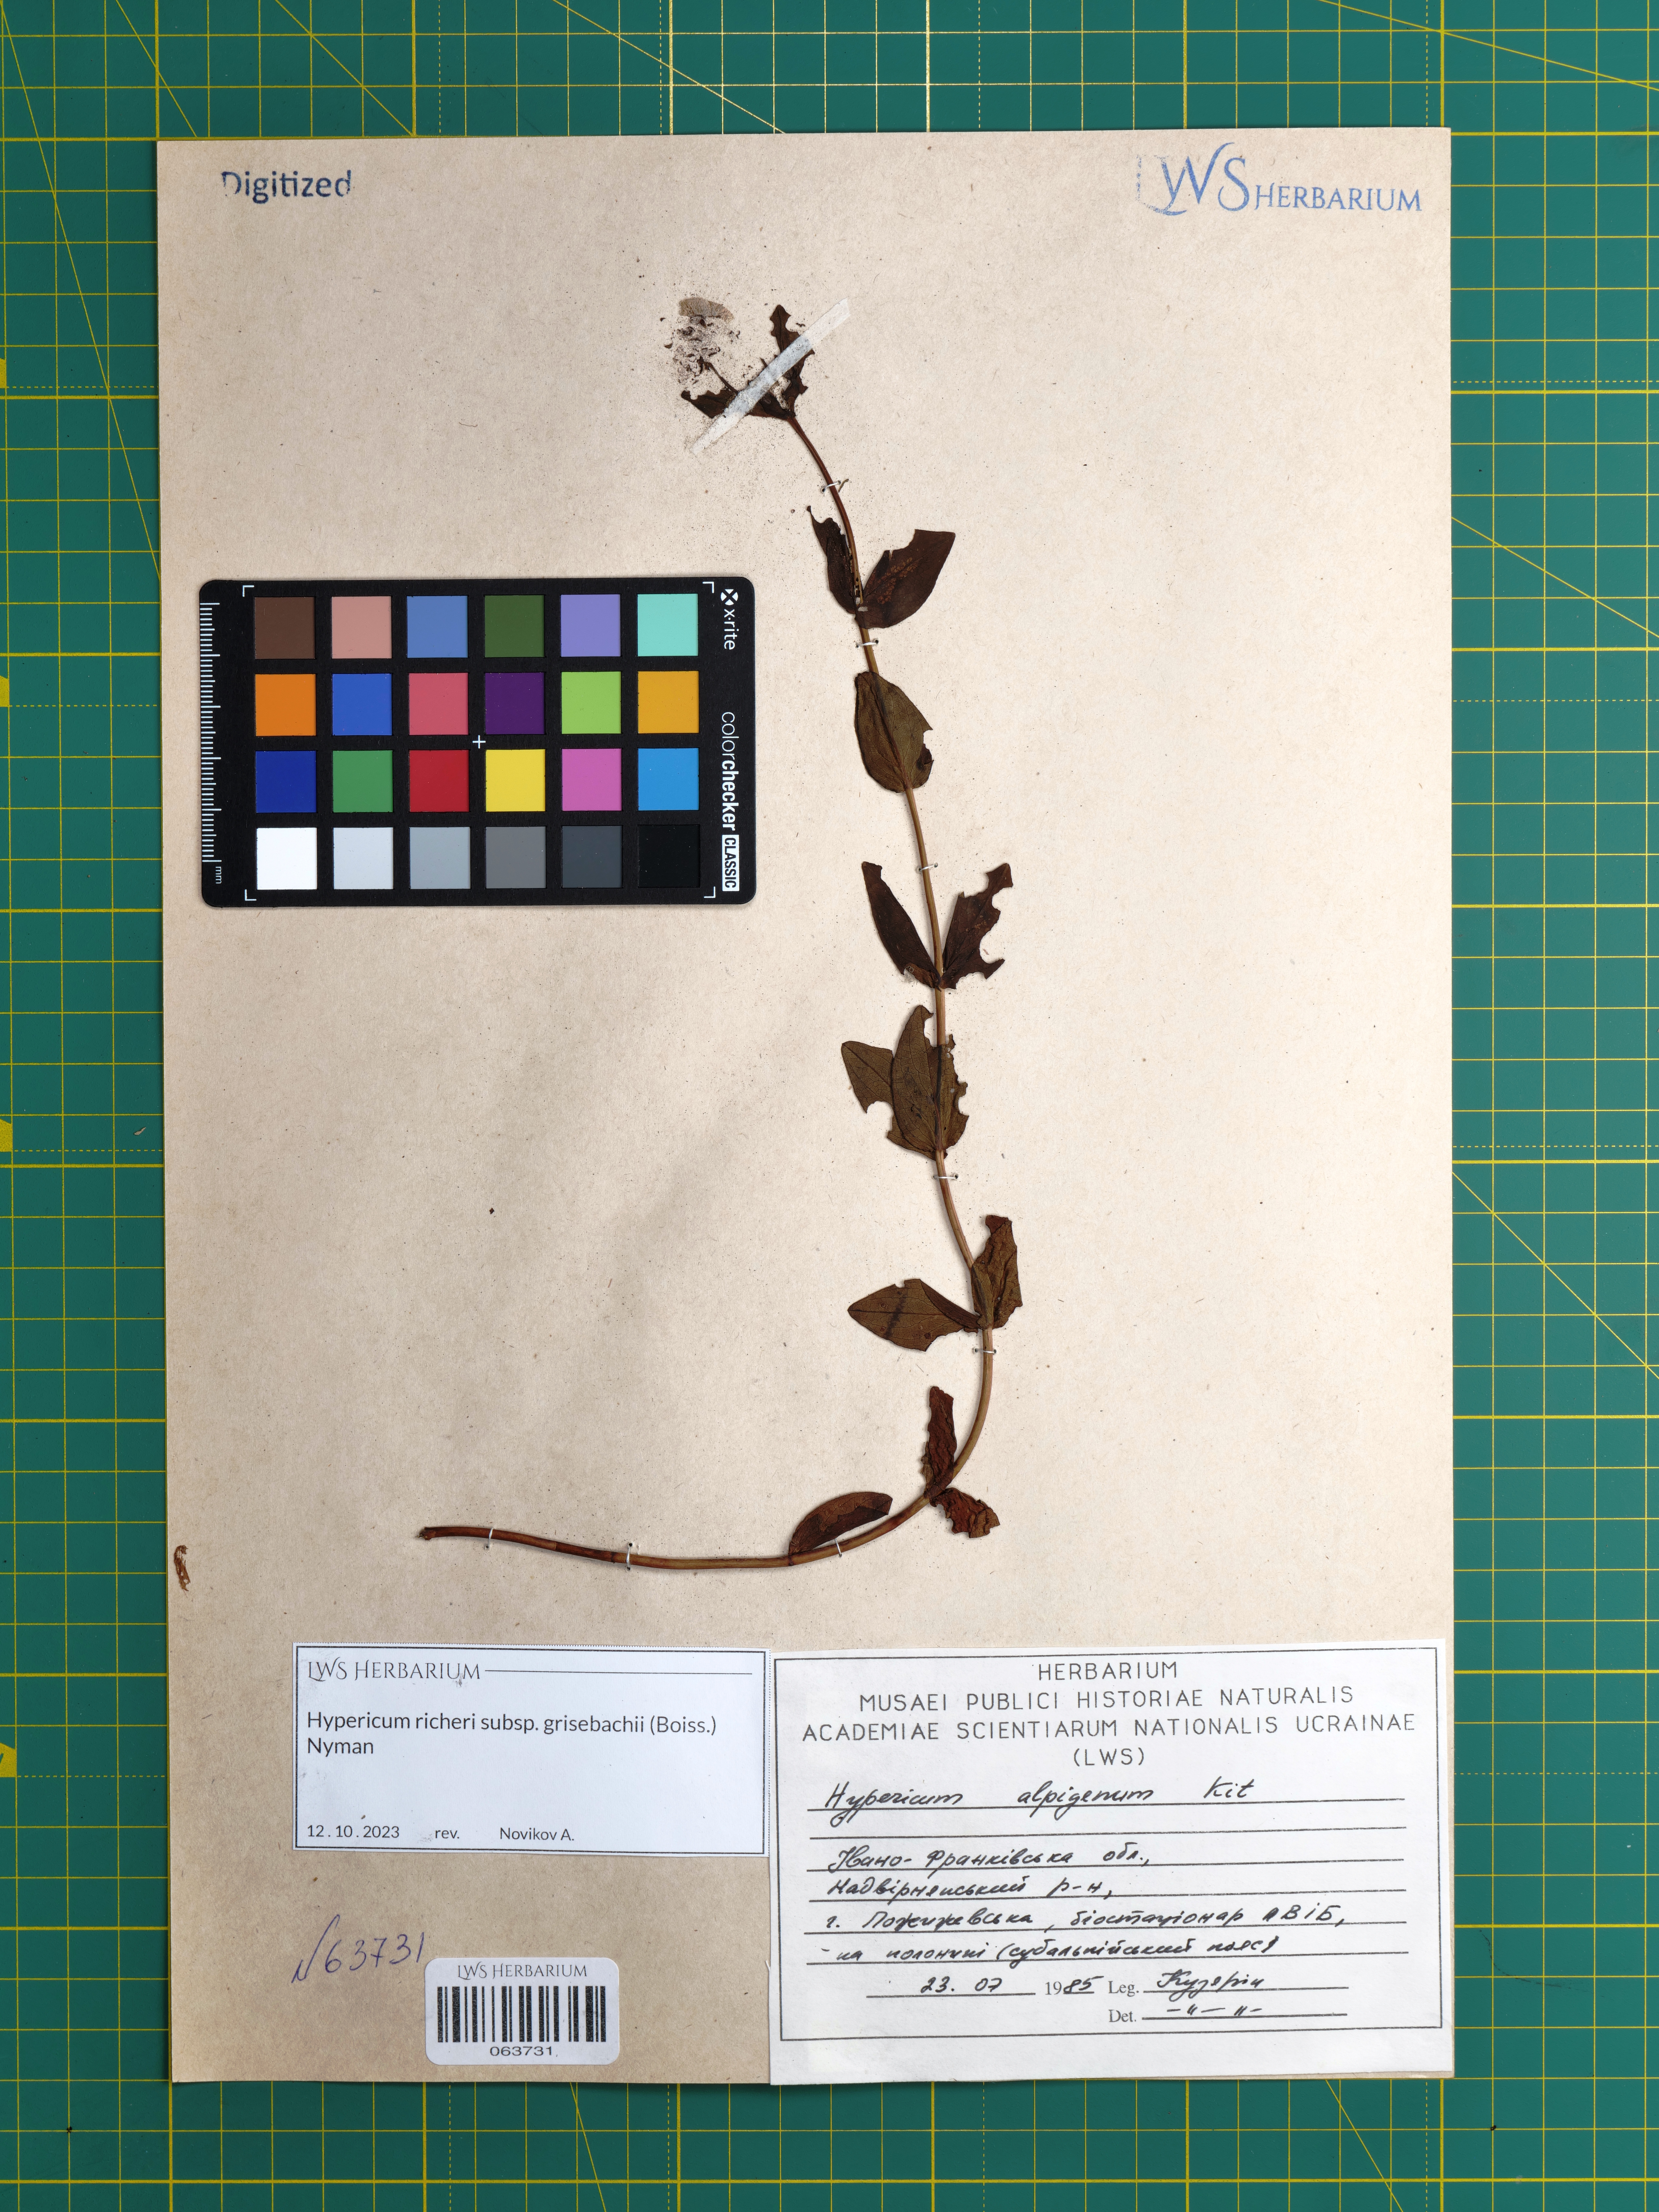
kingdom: Plantae
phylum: Tracheophyta
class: Magnoliopsida
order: Malpighiales
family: Hypericaceae
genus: Hypericum
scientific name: Hypericum richeri
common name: Alpine st john's-wort
